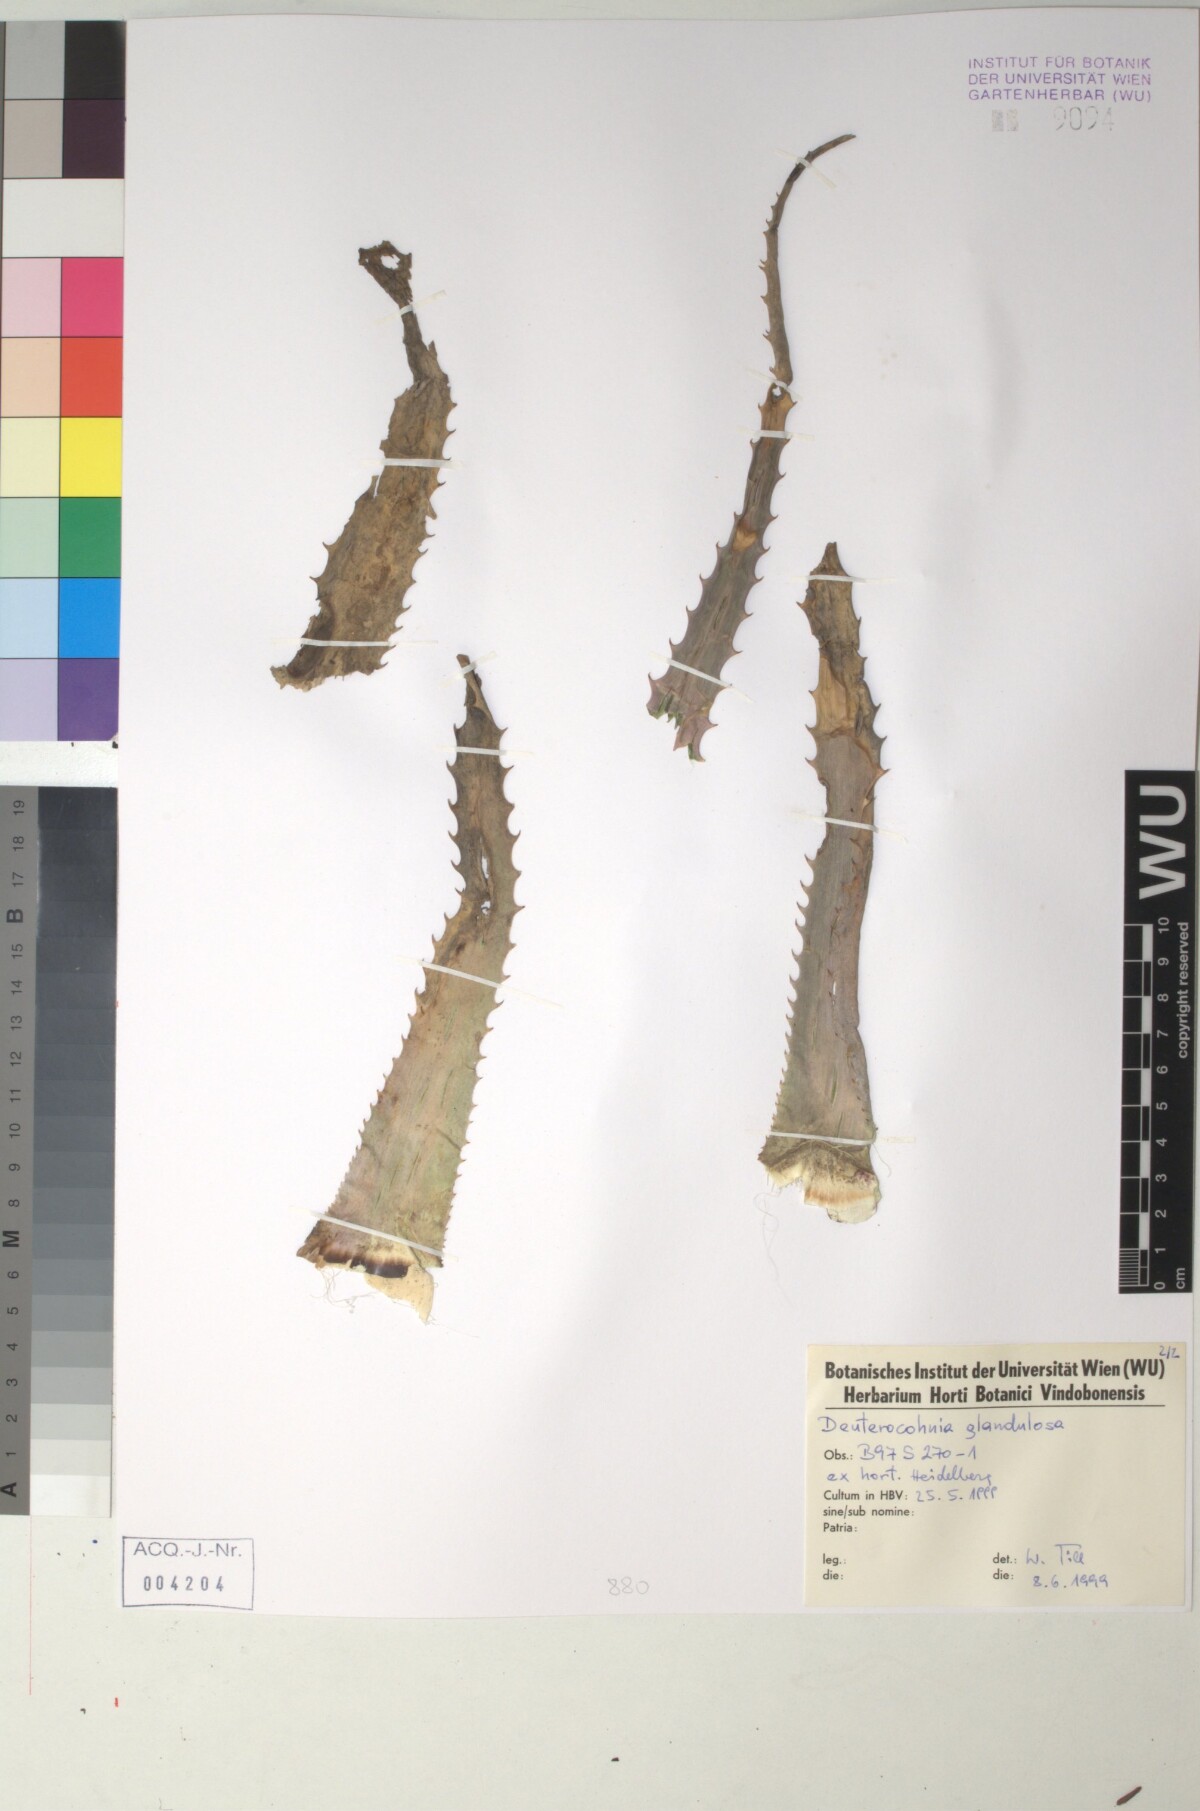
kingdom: Plantae
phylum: Tracheophyta
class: Liliopsida
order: Poales
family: Bromeliaceae
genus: Deuterocohnia
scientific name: Deuterocohnia glandulosa
